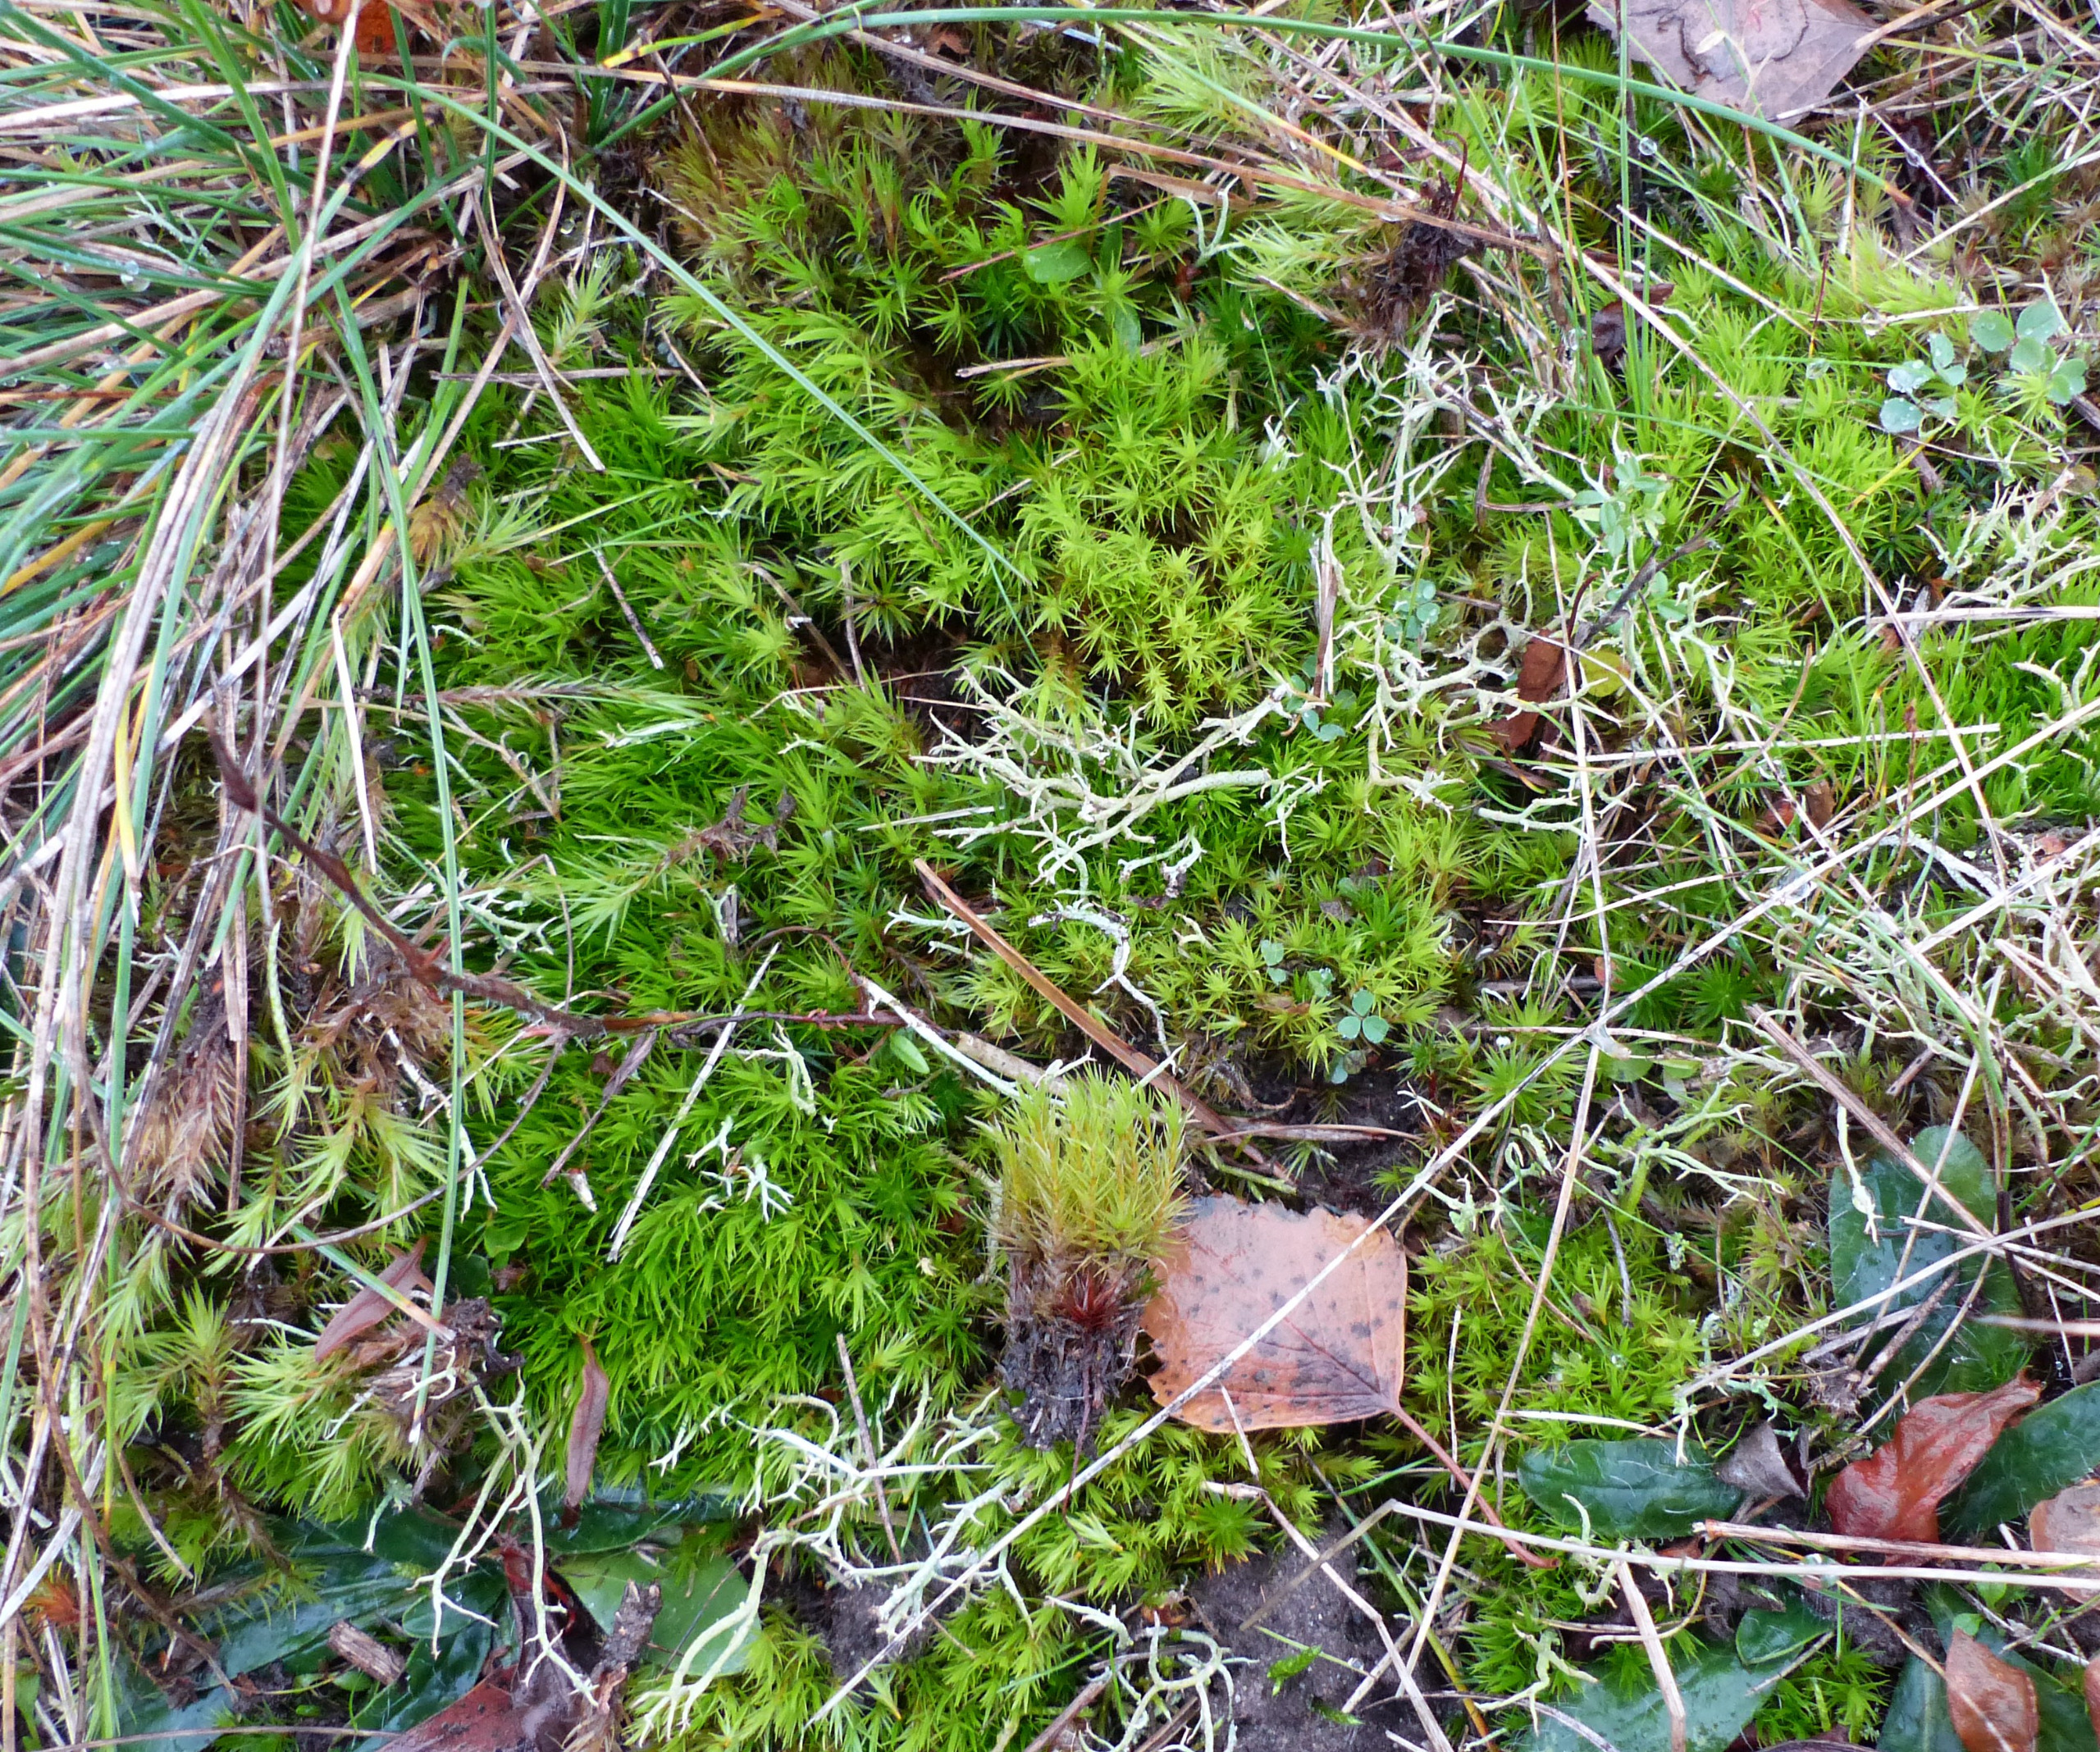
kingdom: Plantae
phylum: Bryophyta
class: Bryopsida
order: Dicranales
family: Dicranaceae
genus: Dicranum
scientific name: Dicranum scoparium
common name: Almindelig kløvtand
